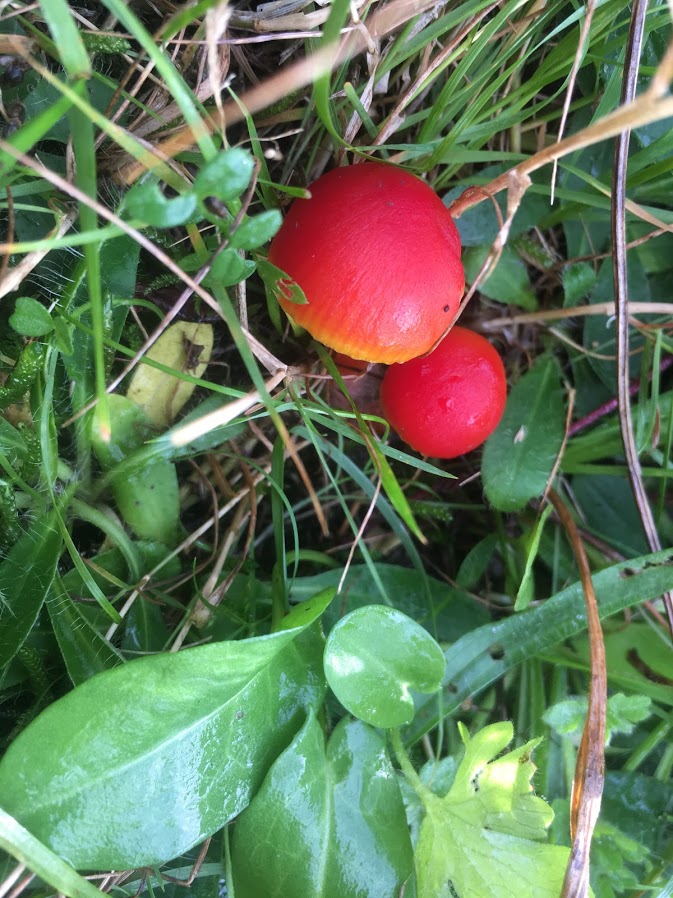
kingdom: Fungi
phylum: Basidiomycota
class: Agaricomycetes
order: Agaricales
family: Hygrophoraceae
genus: Hygrocybe
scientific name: Hygrocybe coccinea
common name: cinnober-vokshat
